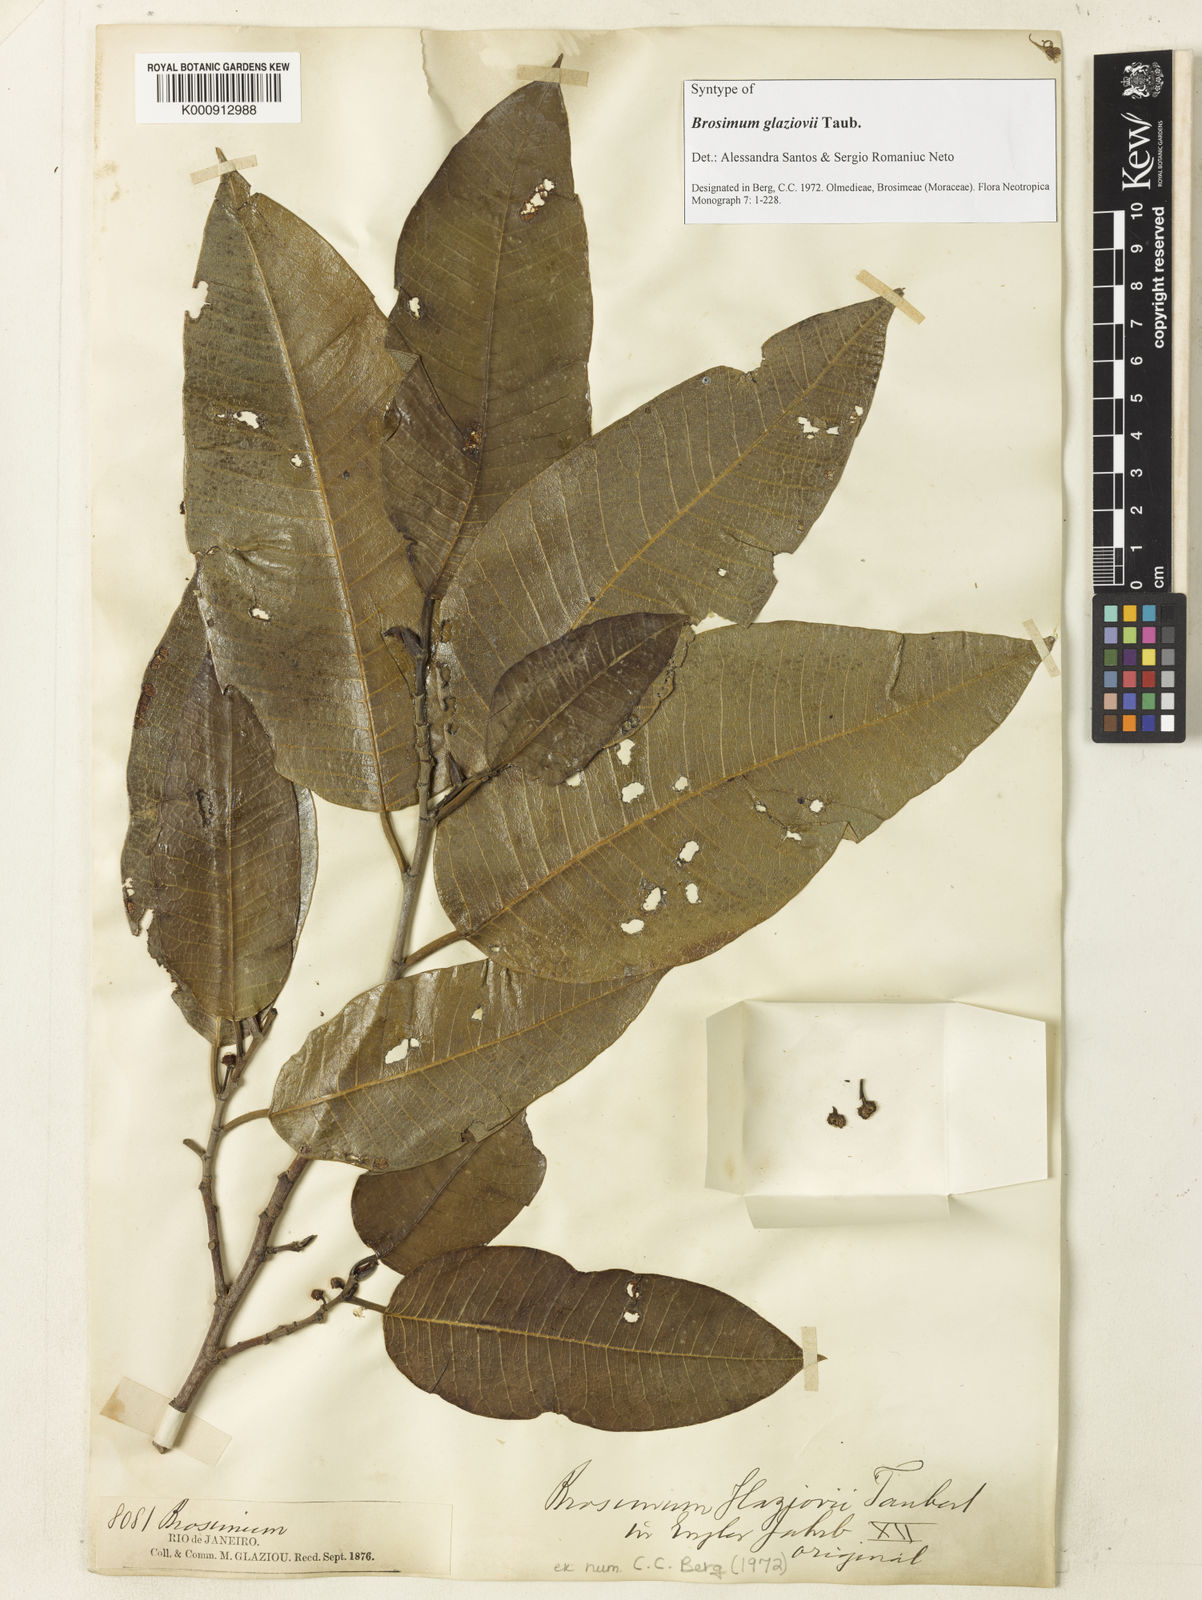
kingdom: Plantae
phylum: Tracheophyta
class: Magnoliopsida
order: Rosales
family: Moraceae
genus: Brosimum
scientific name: Brosimum glaziovii
